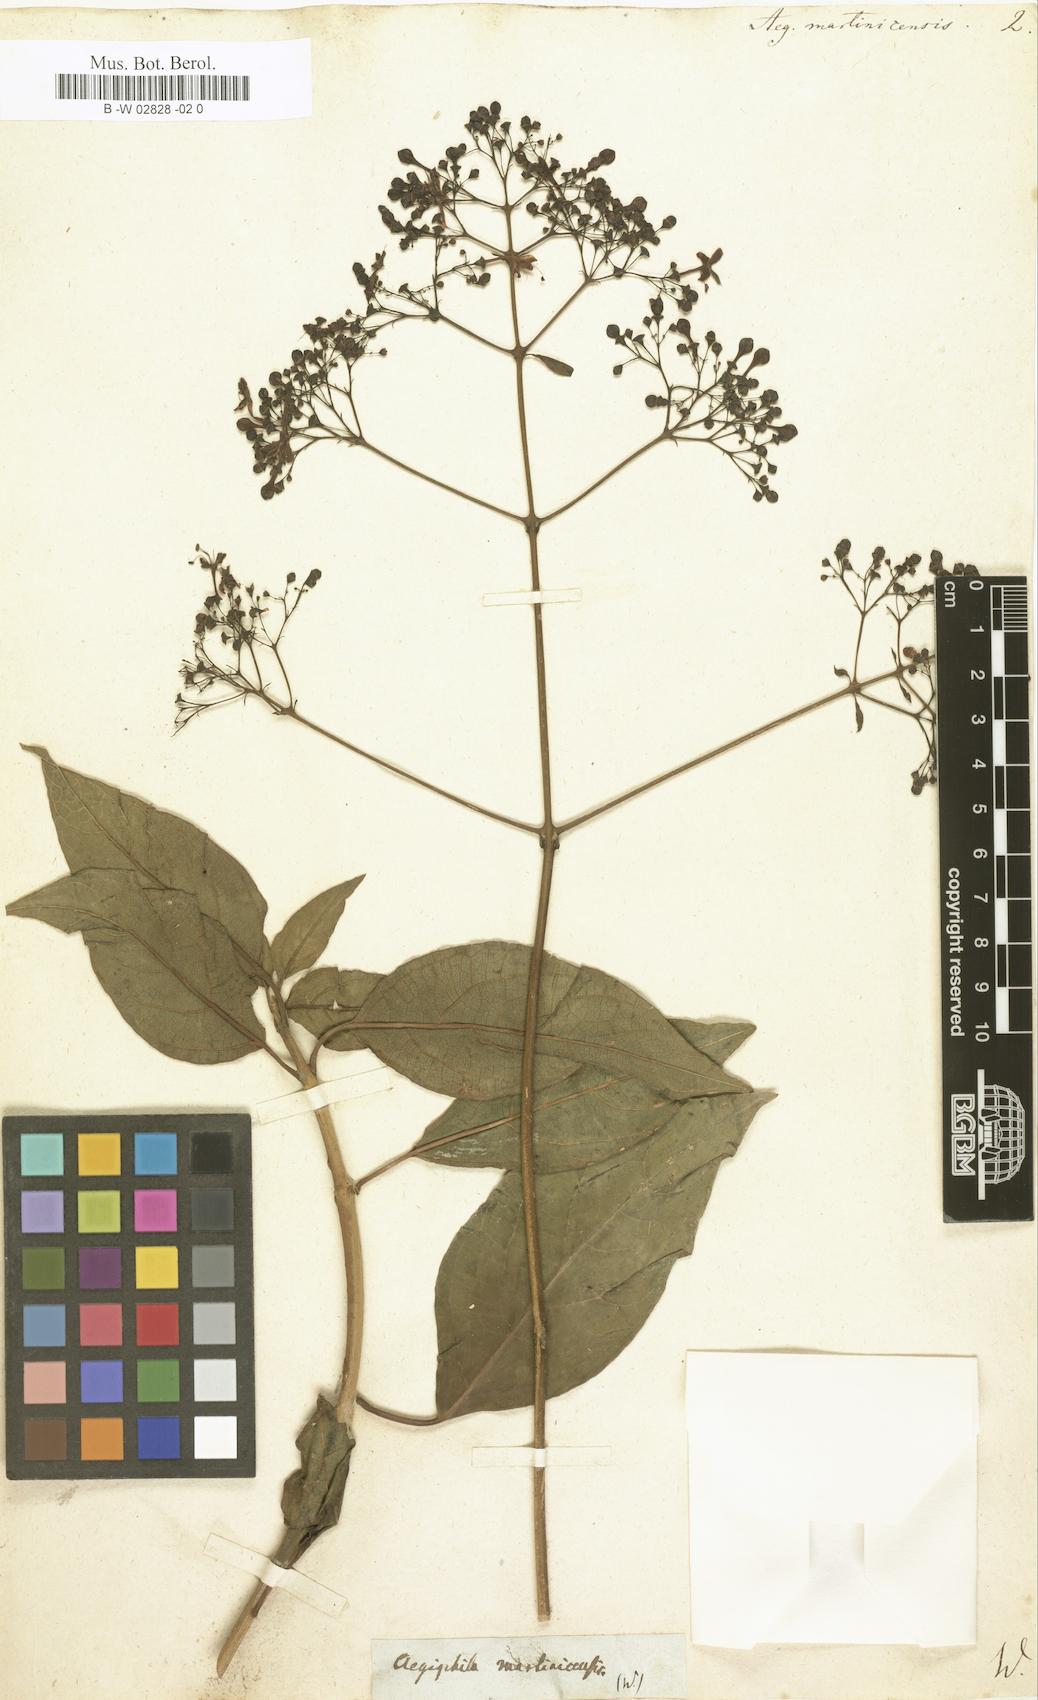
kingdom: Plantae
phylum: Tracheophyta
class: Magnoliopsida
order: Lamiales
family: Lamiaceae
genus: Aegiphila
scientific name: Aegiphila martinicensis
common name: Bastard whiteroot
